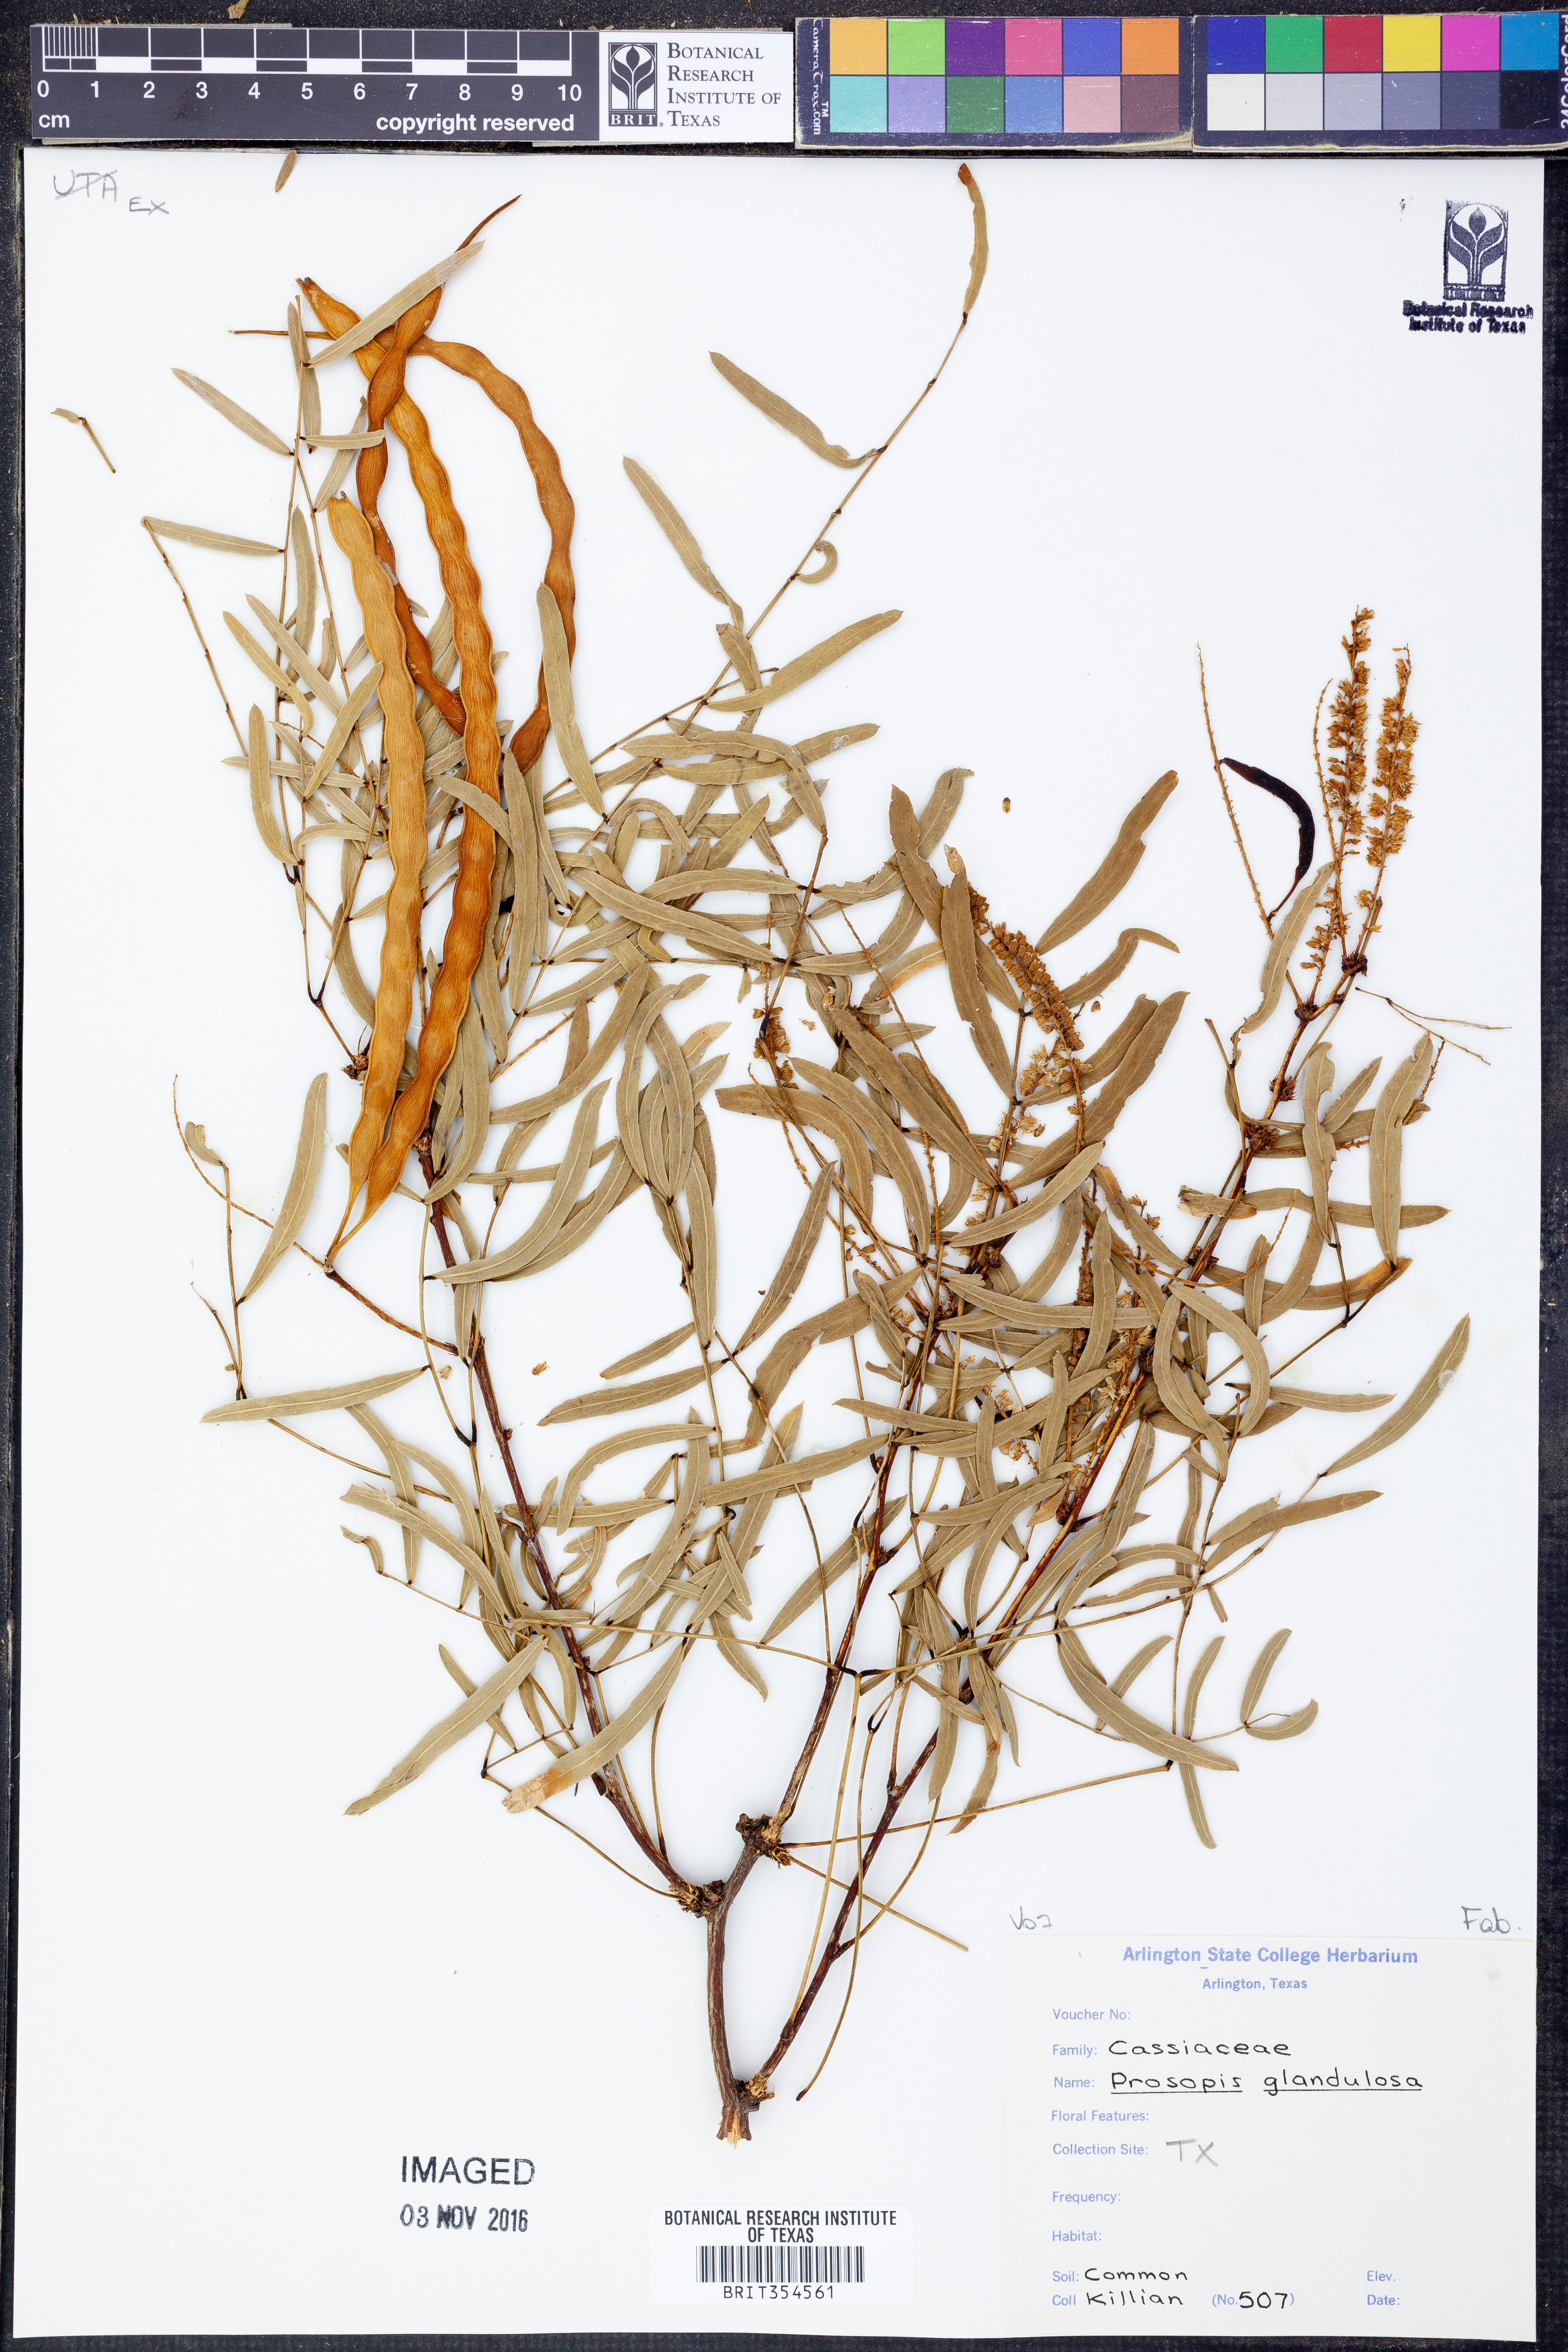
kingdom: Plantae
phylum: Tracheophyta
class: Magnoliopsida
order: Fabales
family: Fabaceae
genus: Prosopis
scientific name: Prosopis glandulosa
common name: Honey mesquite
